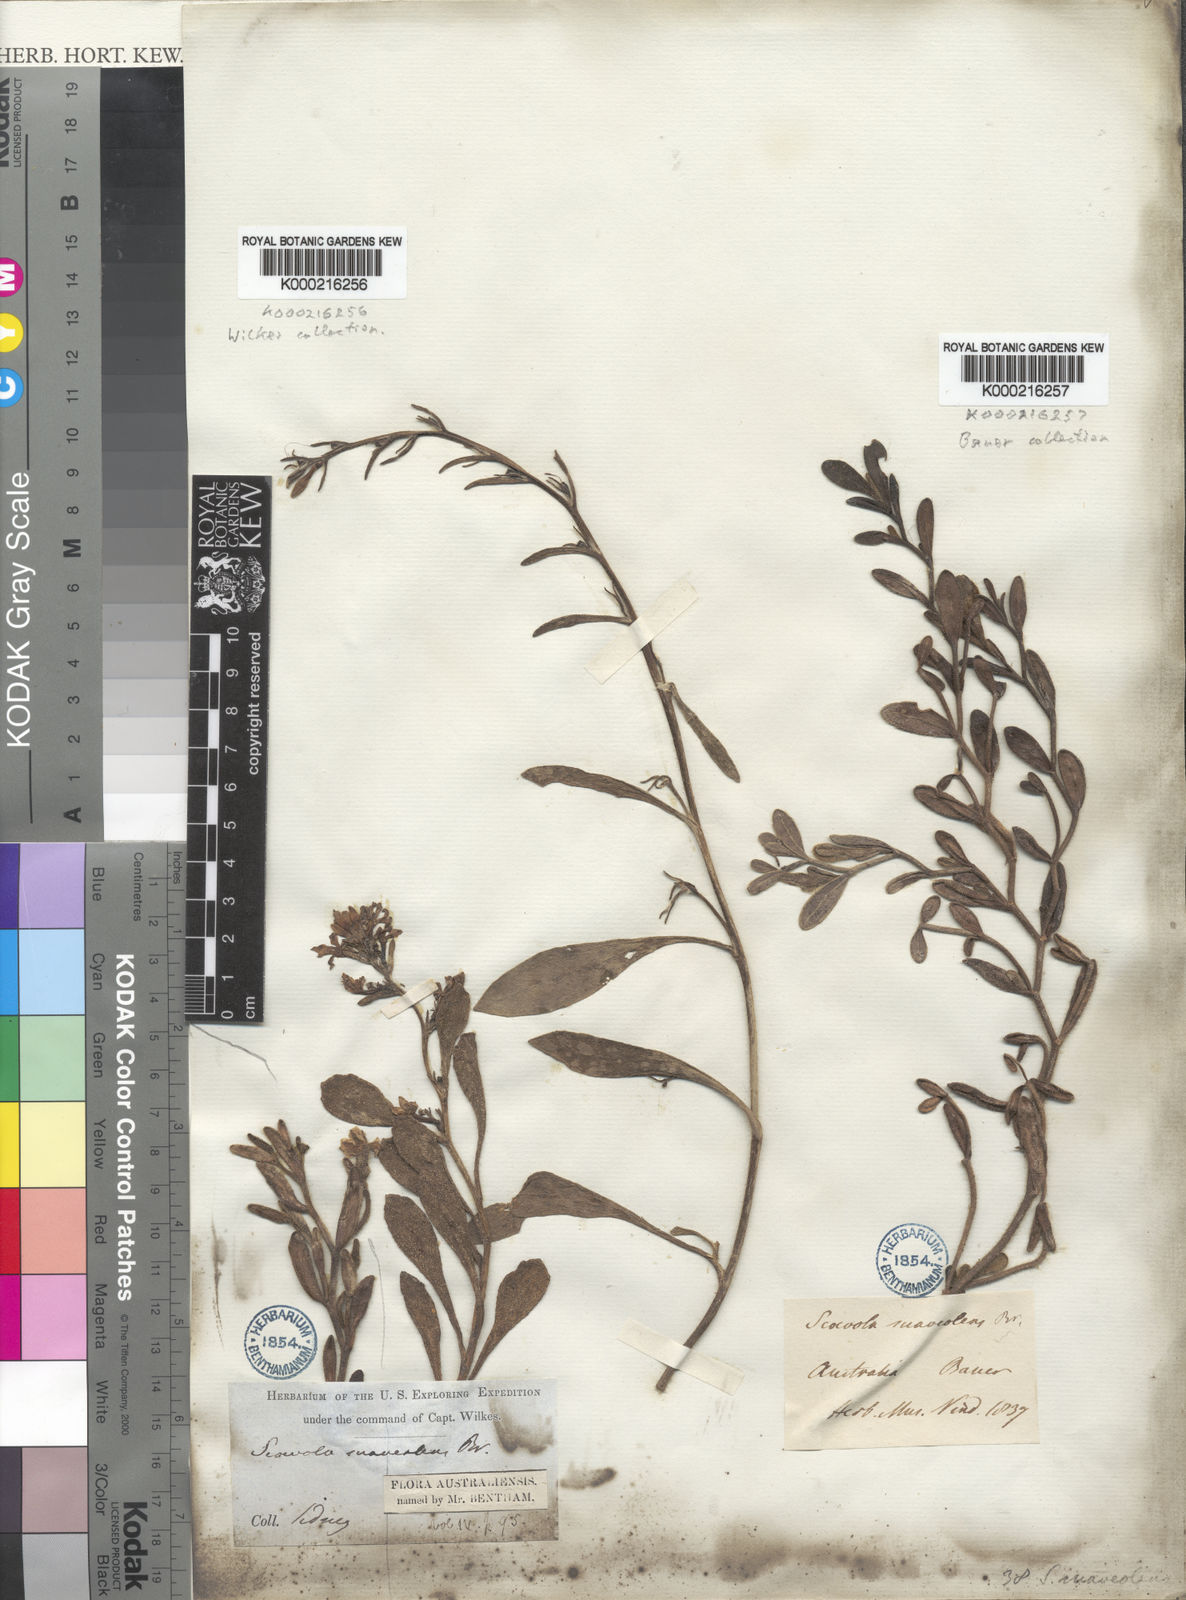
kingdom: Plantae
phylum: Tracheophyta
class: Magnoliopsida
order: Asterales
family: Goodeniaceae
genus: Scaevola
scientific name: Scaevola calendulacea
